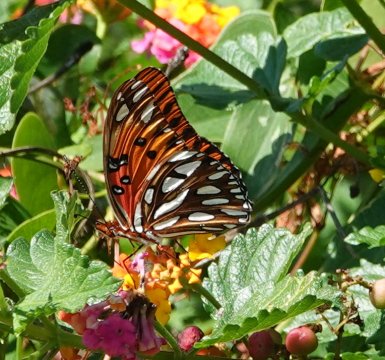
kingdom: Animalia
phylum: Arthropoda
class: Insecta
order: Lepidoptera
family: Nymphalidae
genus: Dione
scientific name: Dione vanillae
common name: Gulf Fritillary
